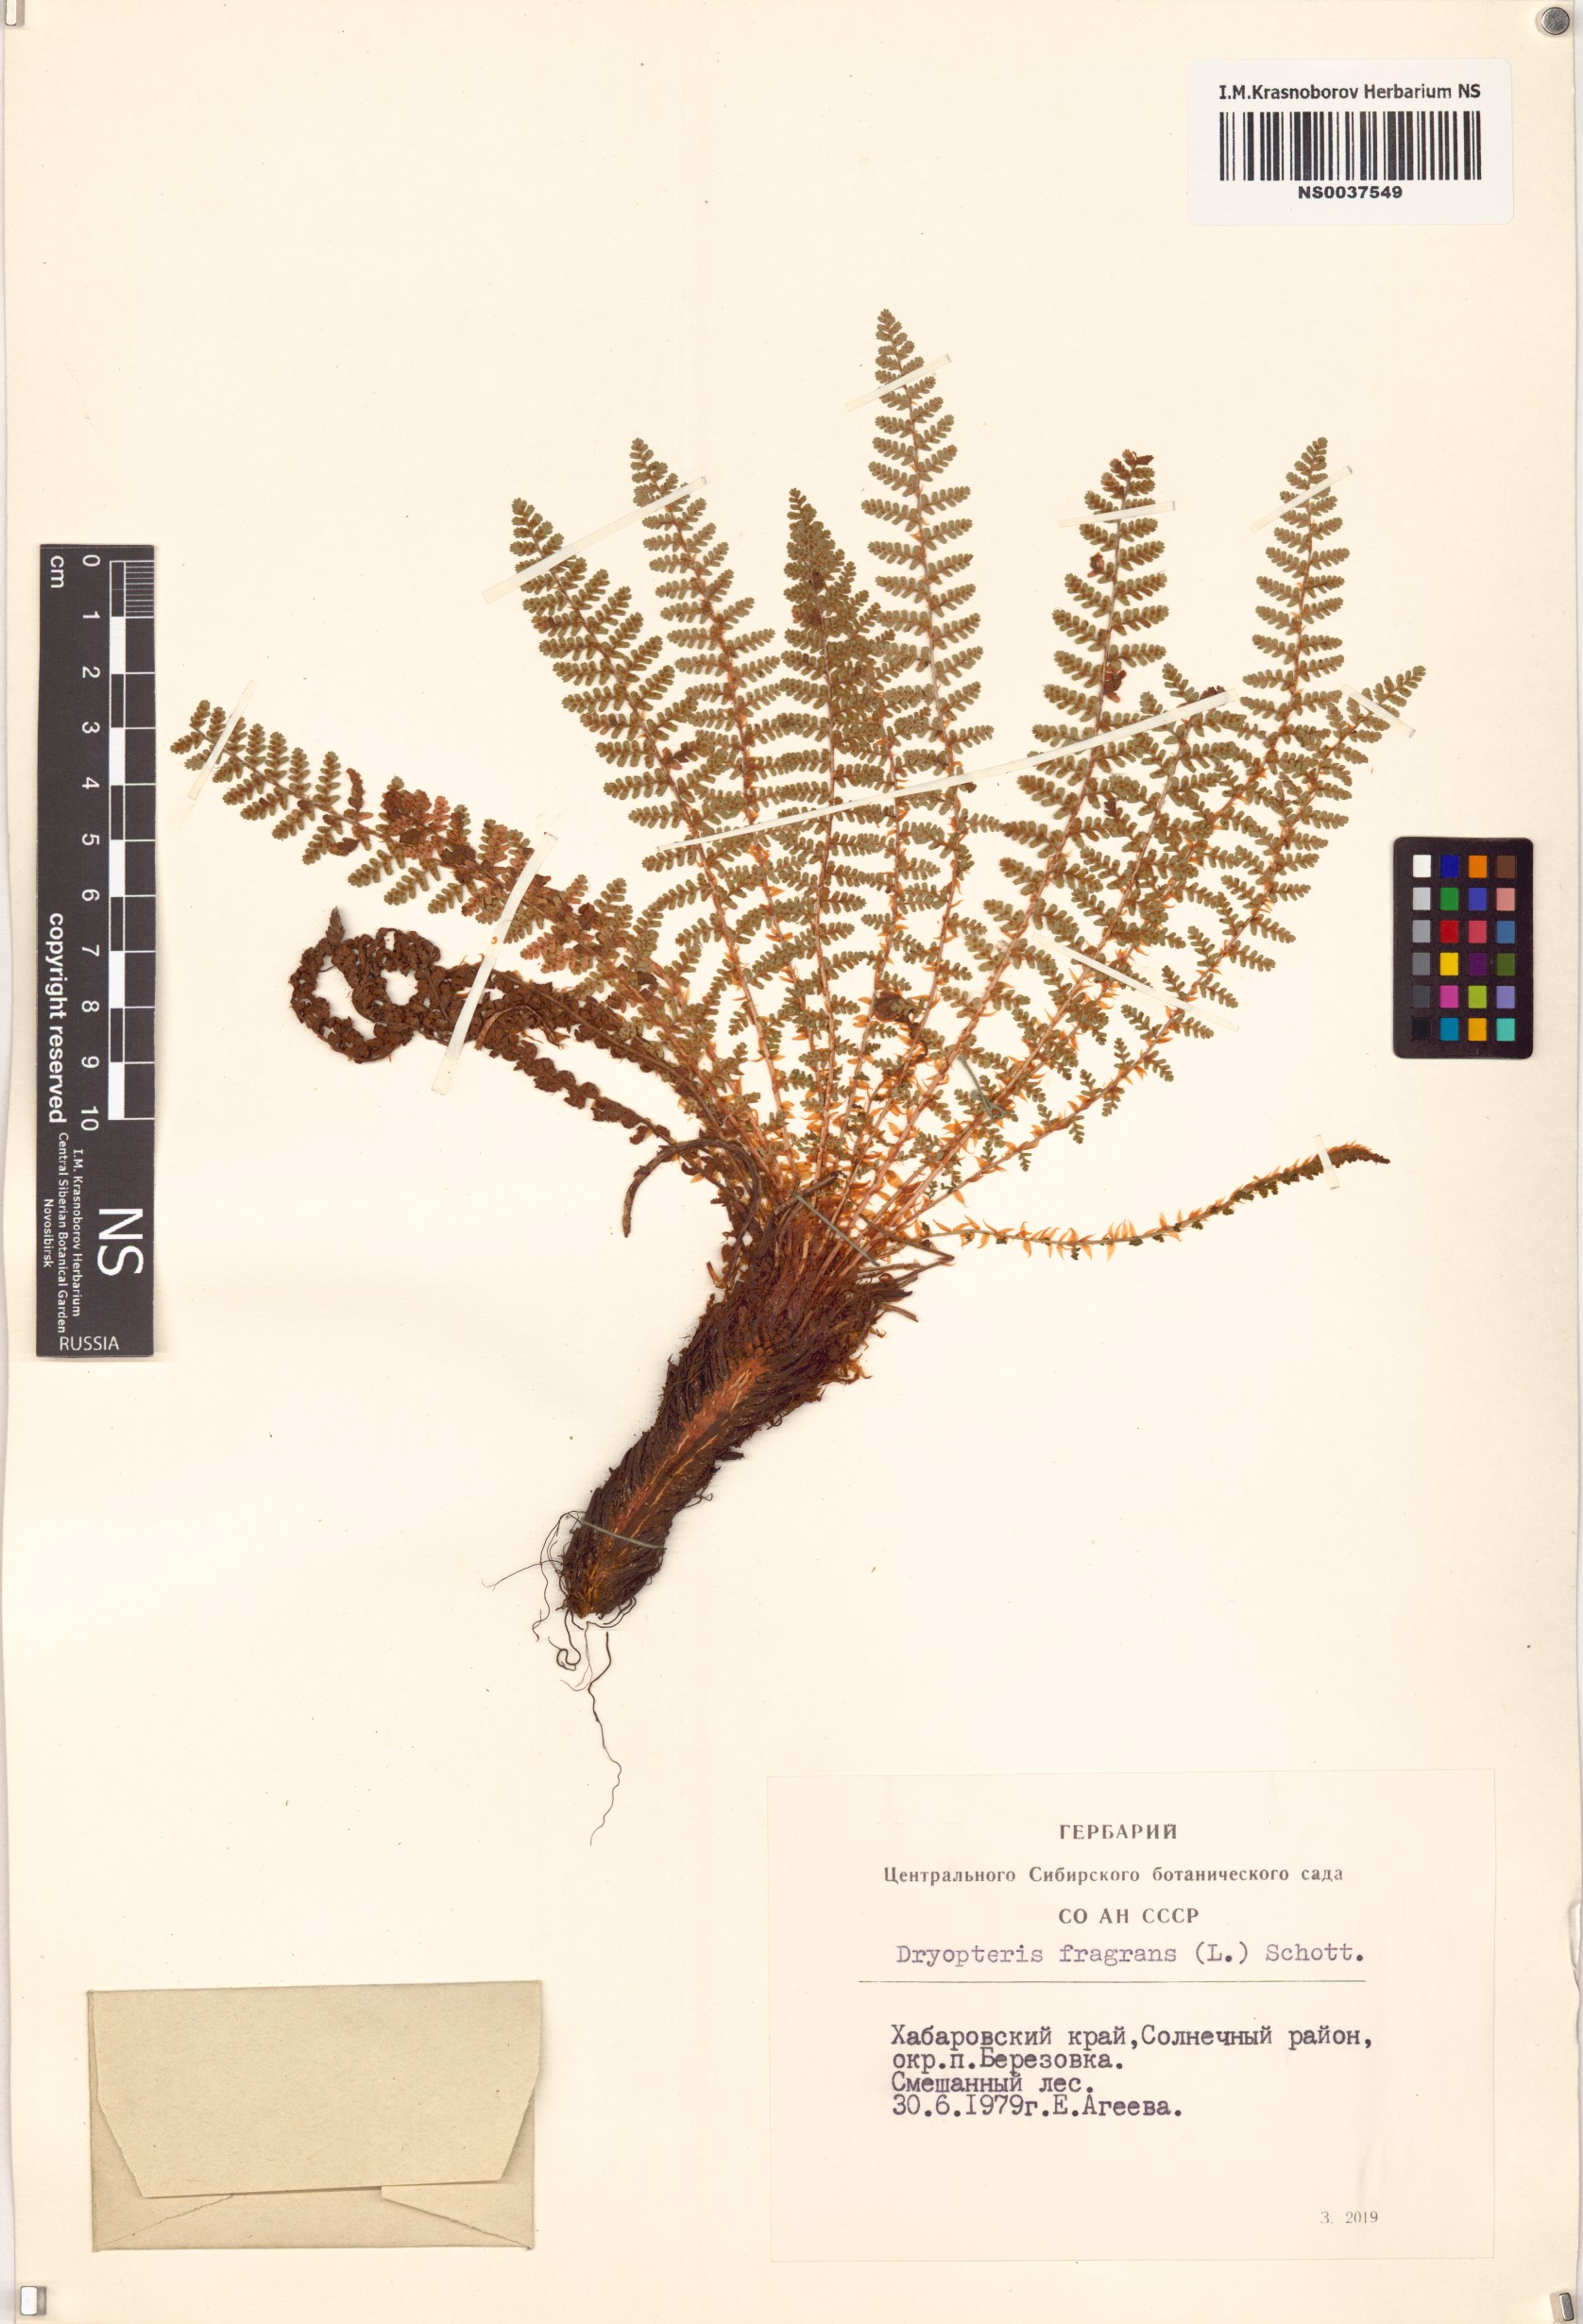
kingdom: Plantae
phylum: Tracheophyta
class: Polypodiopsida
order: Polypodiales
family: Dryopteridaceae
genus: Dryopteris
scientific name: Dryopteris fragrans
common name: Fragrant wood fern
